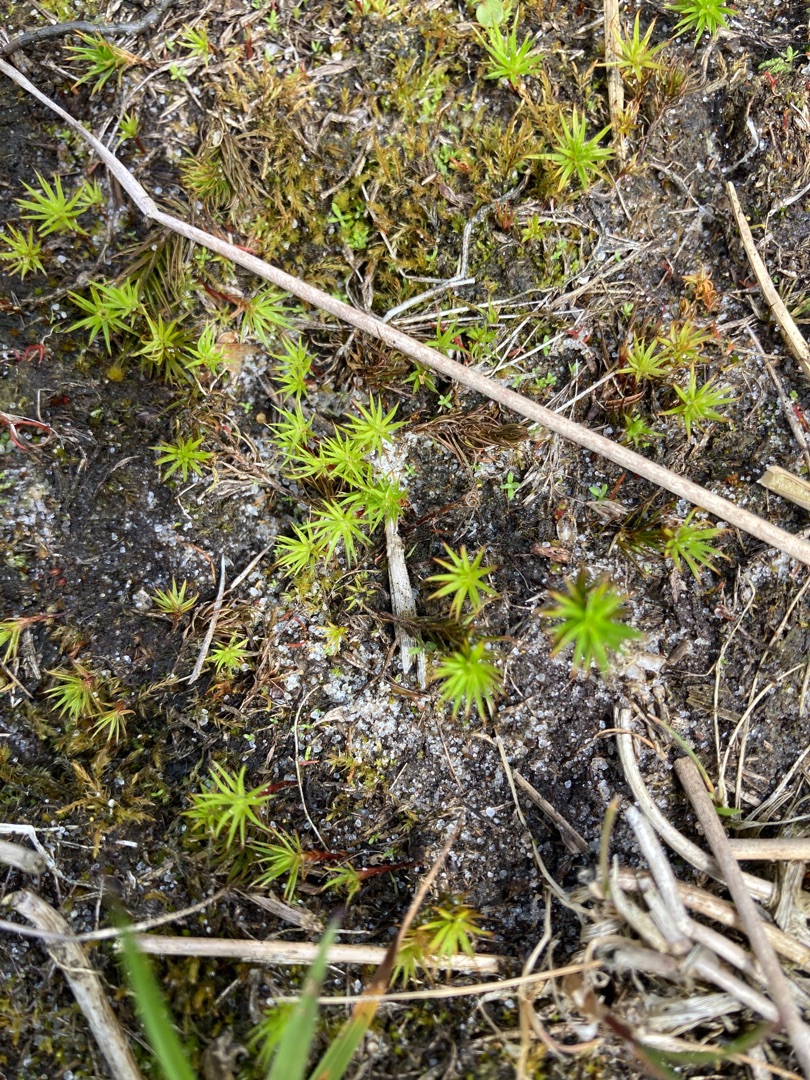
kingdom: Plantae
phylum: Bryophyta
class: Polytrichopsida
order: Polytrichales
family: Polytrichaceae
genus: Polytrichum
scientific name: Polytrichum
